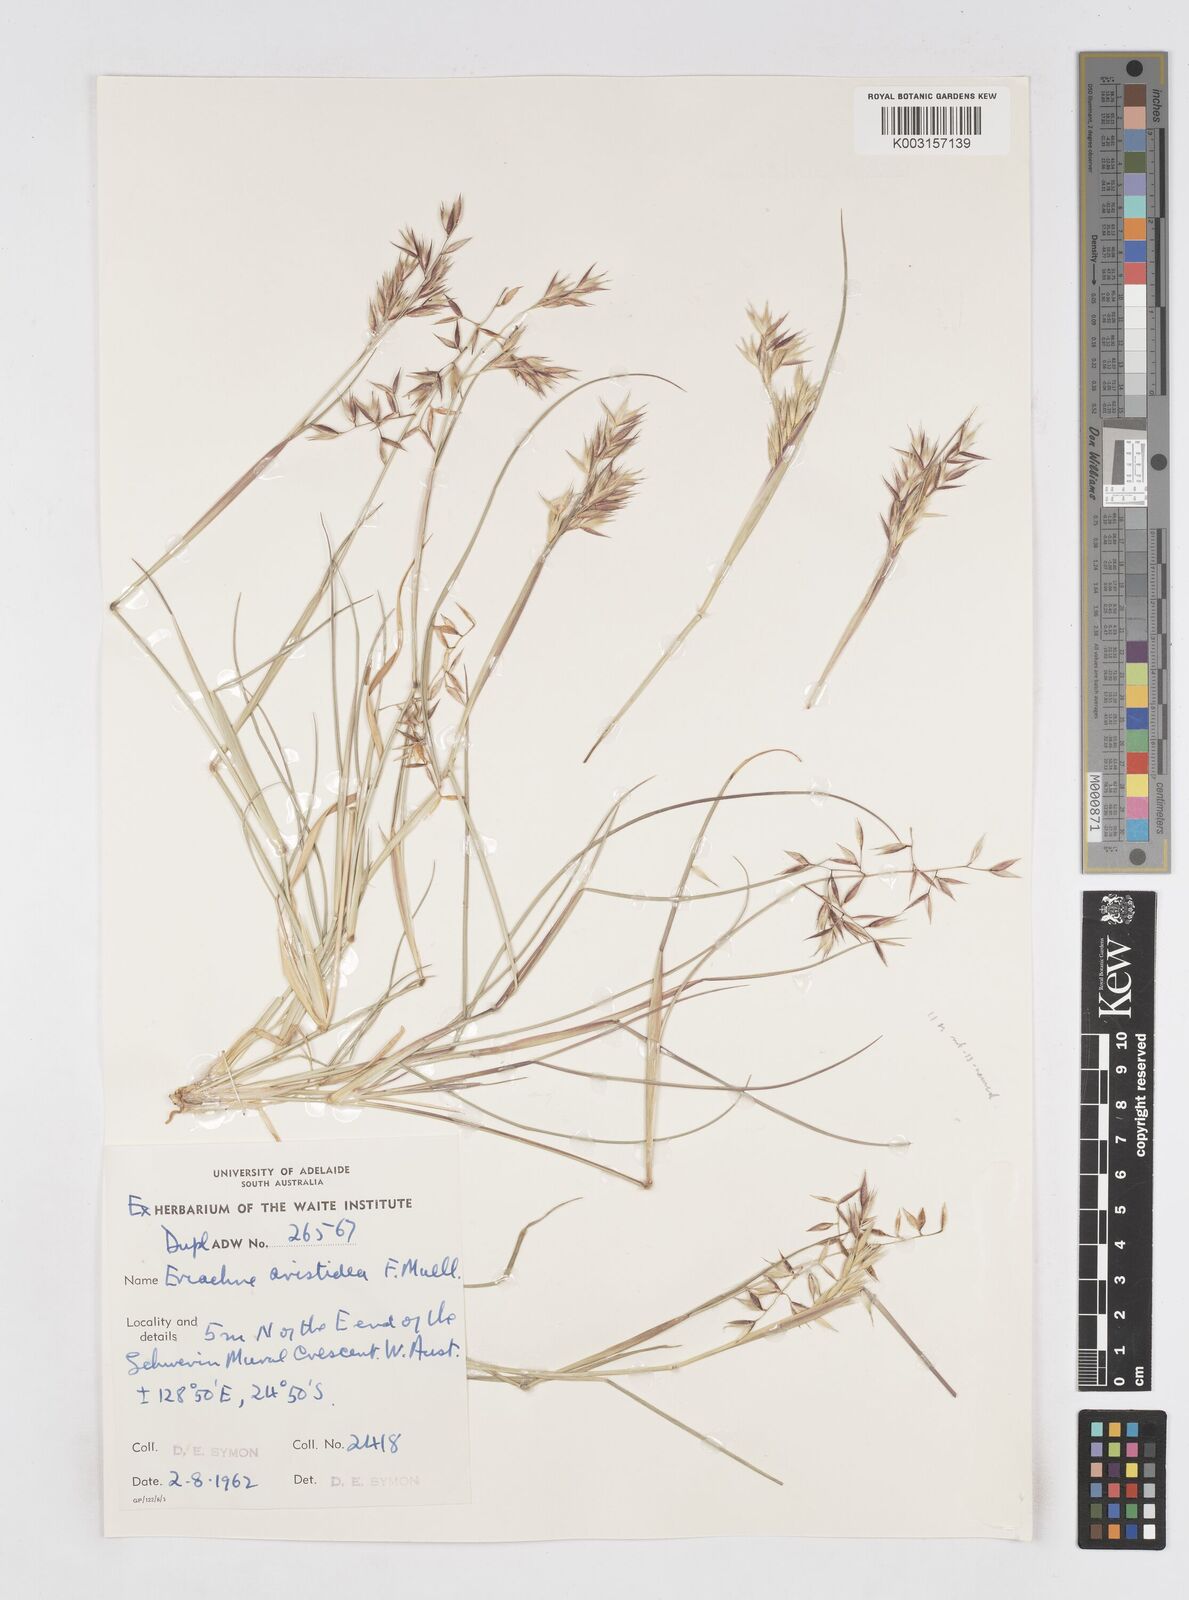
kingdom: Plantae
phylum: Tracheophyta
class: Liliopsida
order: Poales
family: Poaceae
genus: Eriachne
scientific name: Eriachne aristidea
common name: Three-awn wanderrie grass
